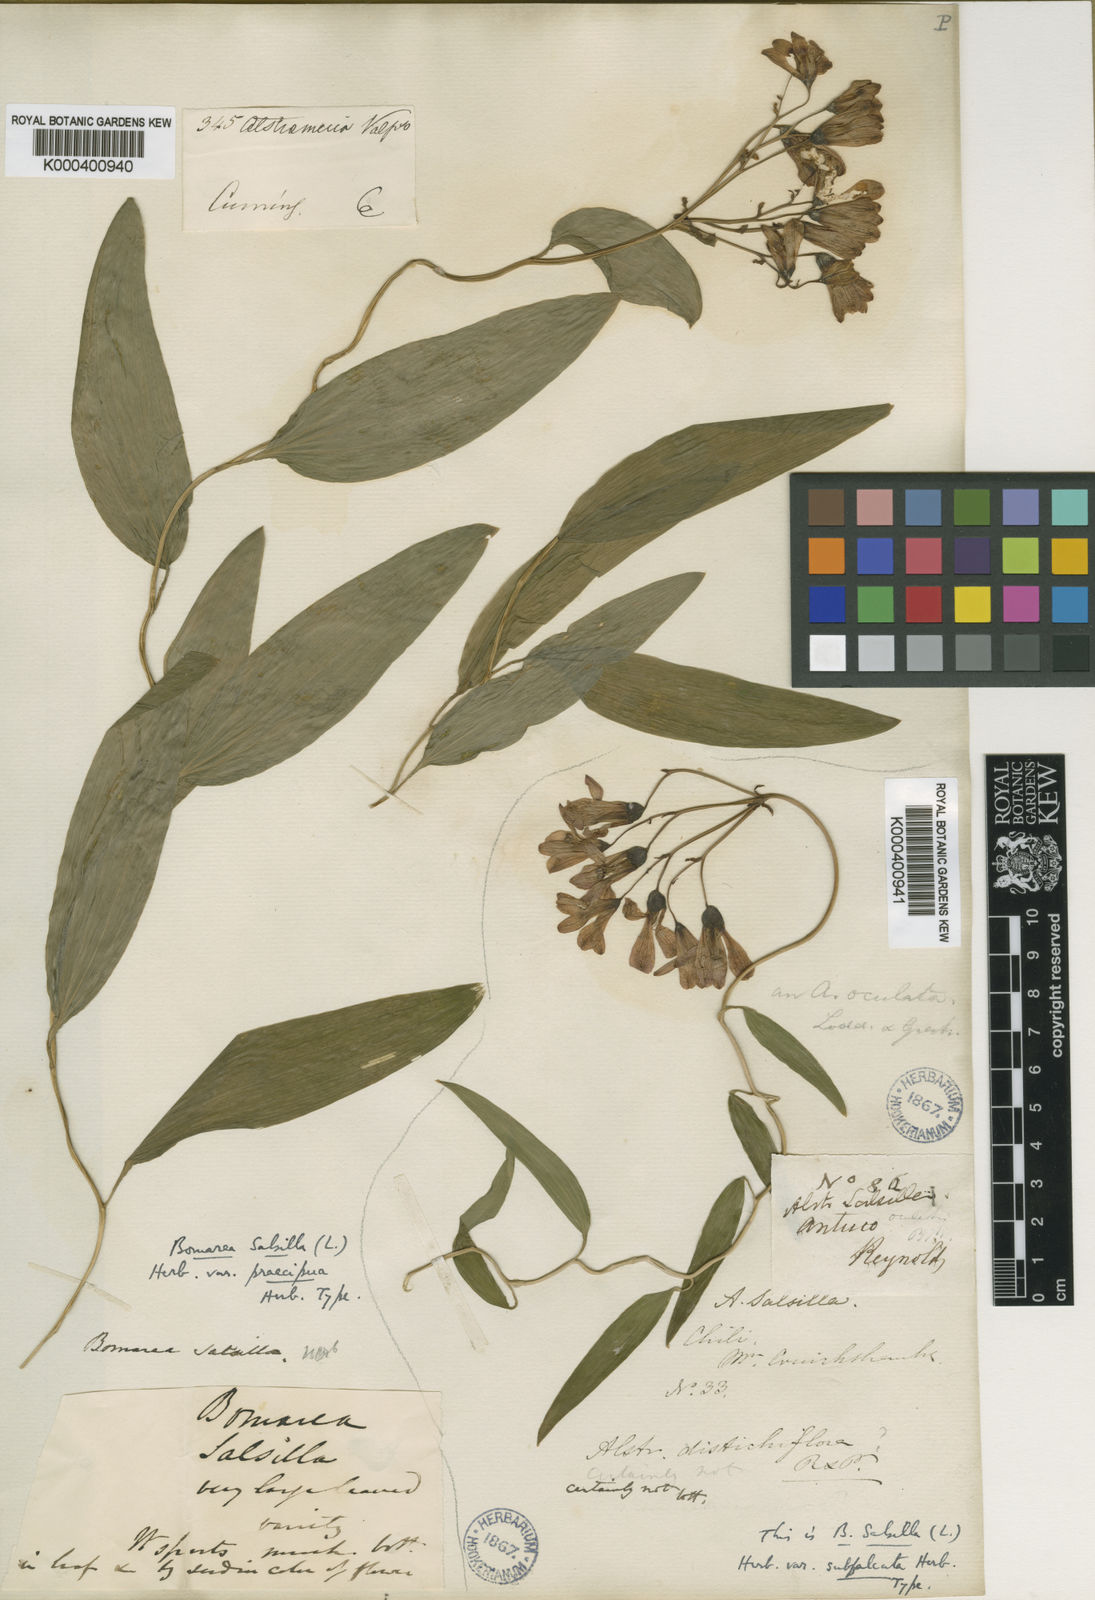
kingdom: Plantae
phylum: Tracheophyta
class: Liliopsida
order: Liliales
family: Alstroemeriaceae
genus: Bomarea
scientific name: Bomarea salsilla
